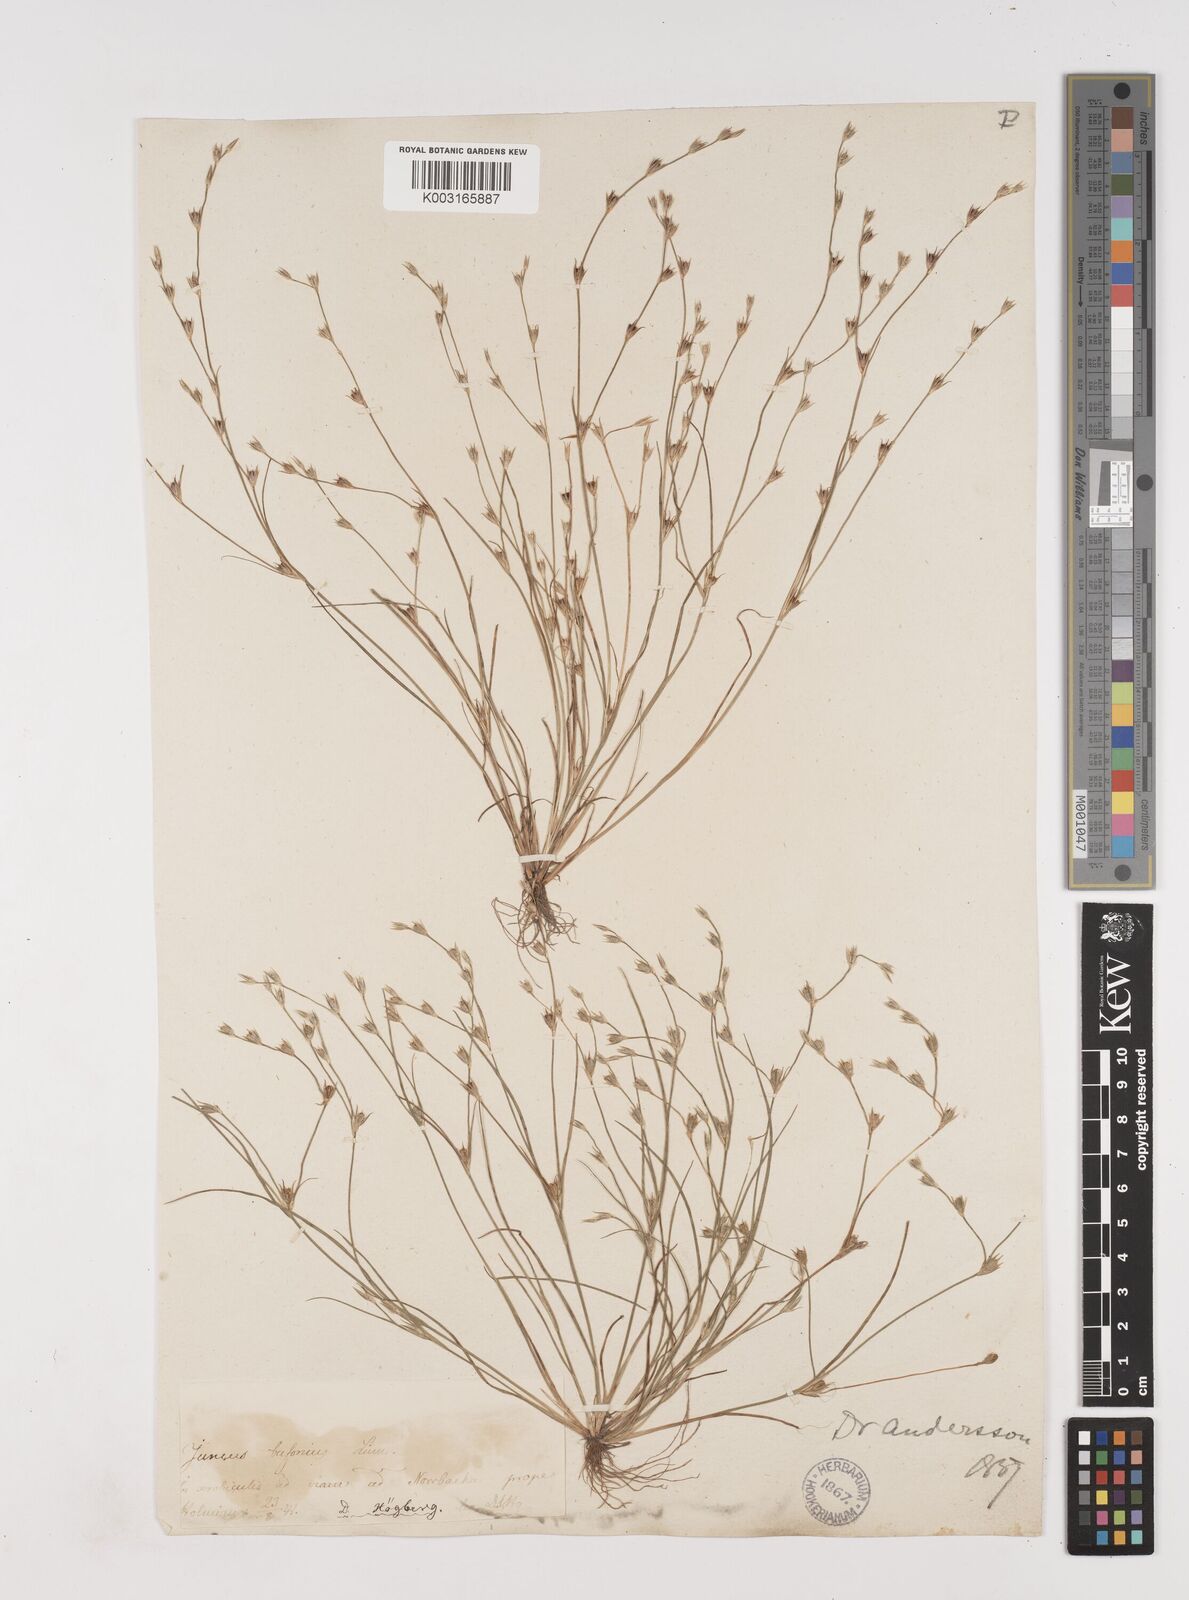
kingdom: Plantae
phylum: Tracheophyta
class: Liliopsida
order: Poales
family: Juncaceae
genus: Juncus
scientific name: Juncus bufonius
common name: Toad rush
